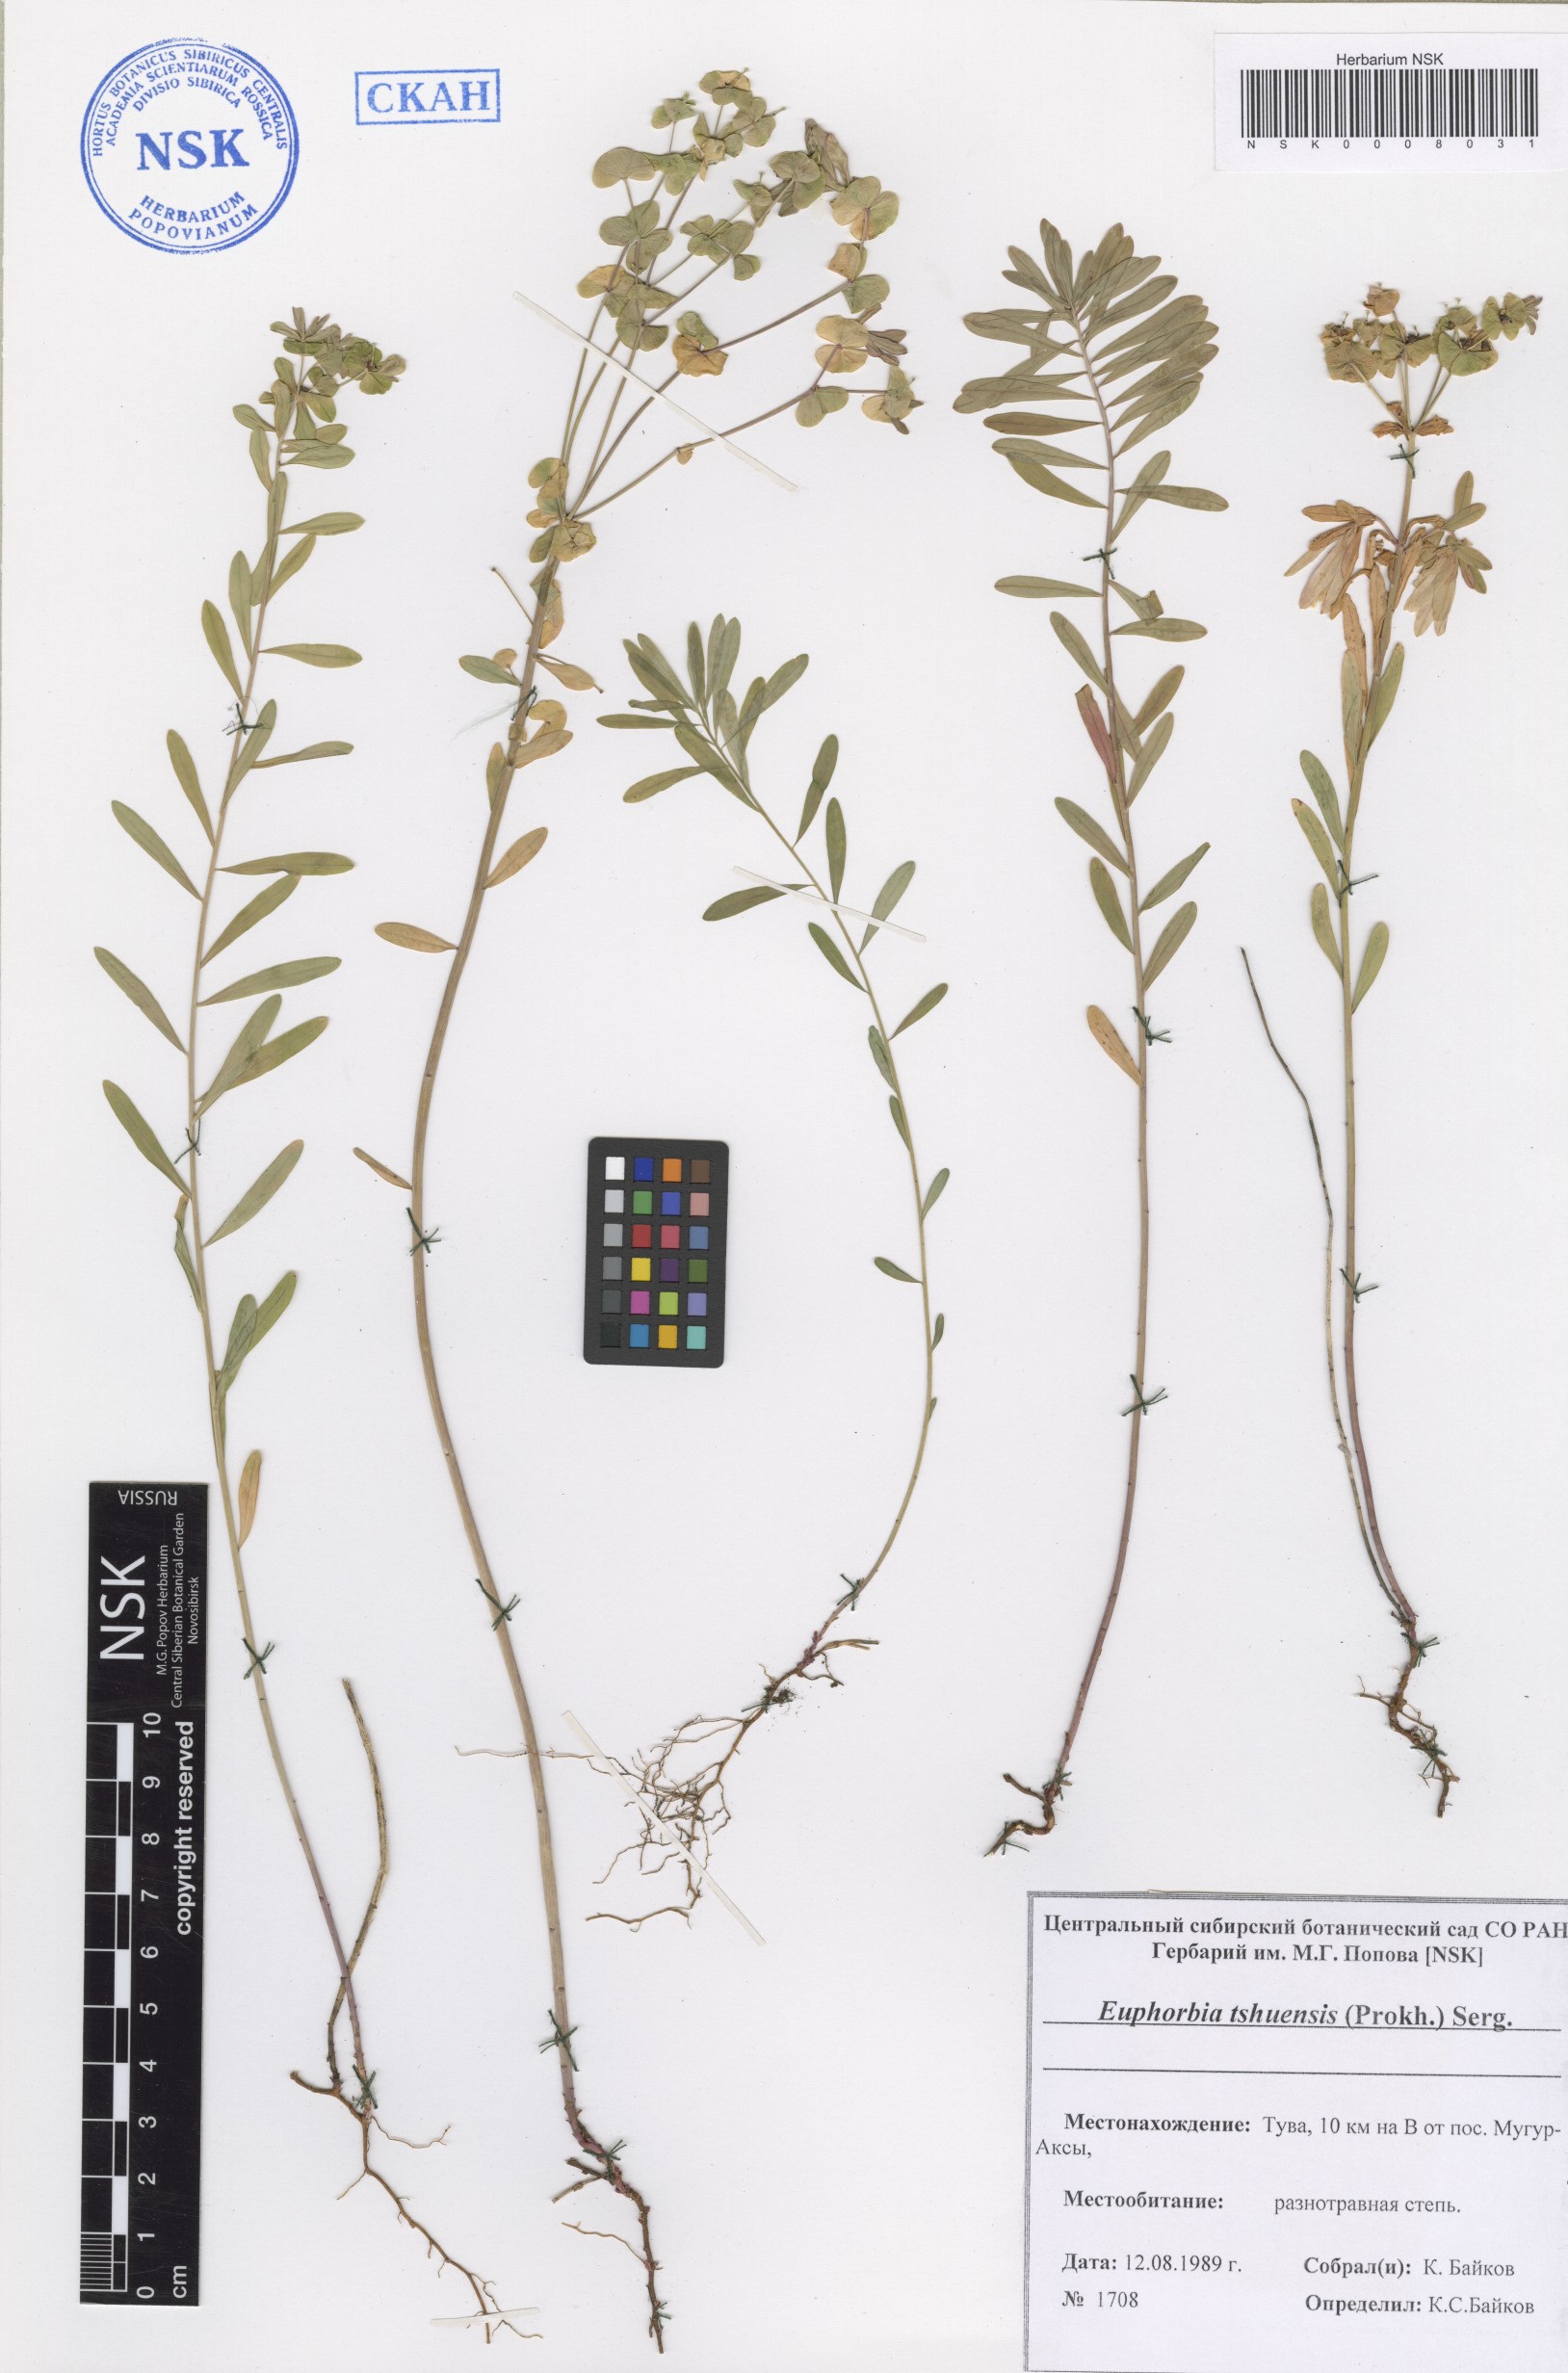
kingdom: Plantae
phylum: Tracheophyta
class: Magnoliopsida
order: Malpighiales
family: Euphorbiaceae
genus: Euphorbia
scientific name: Euphorbia tshuiensis
